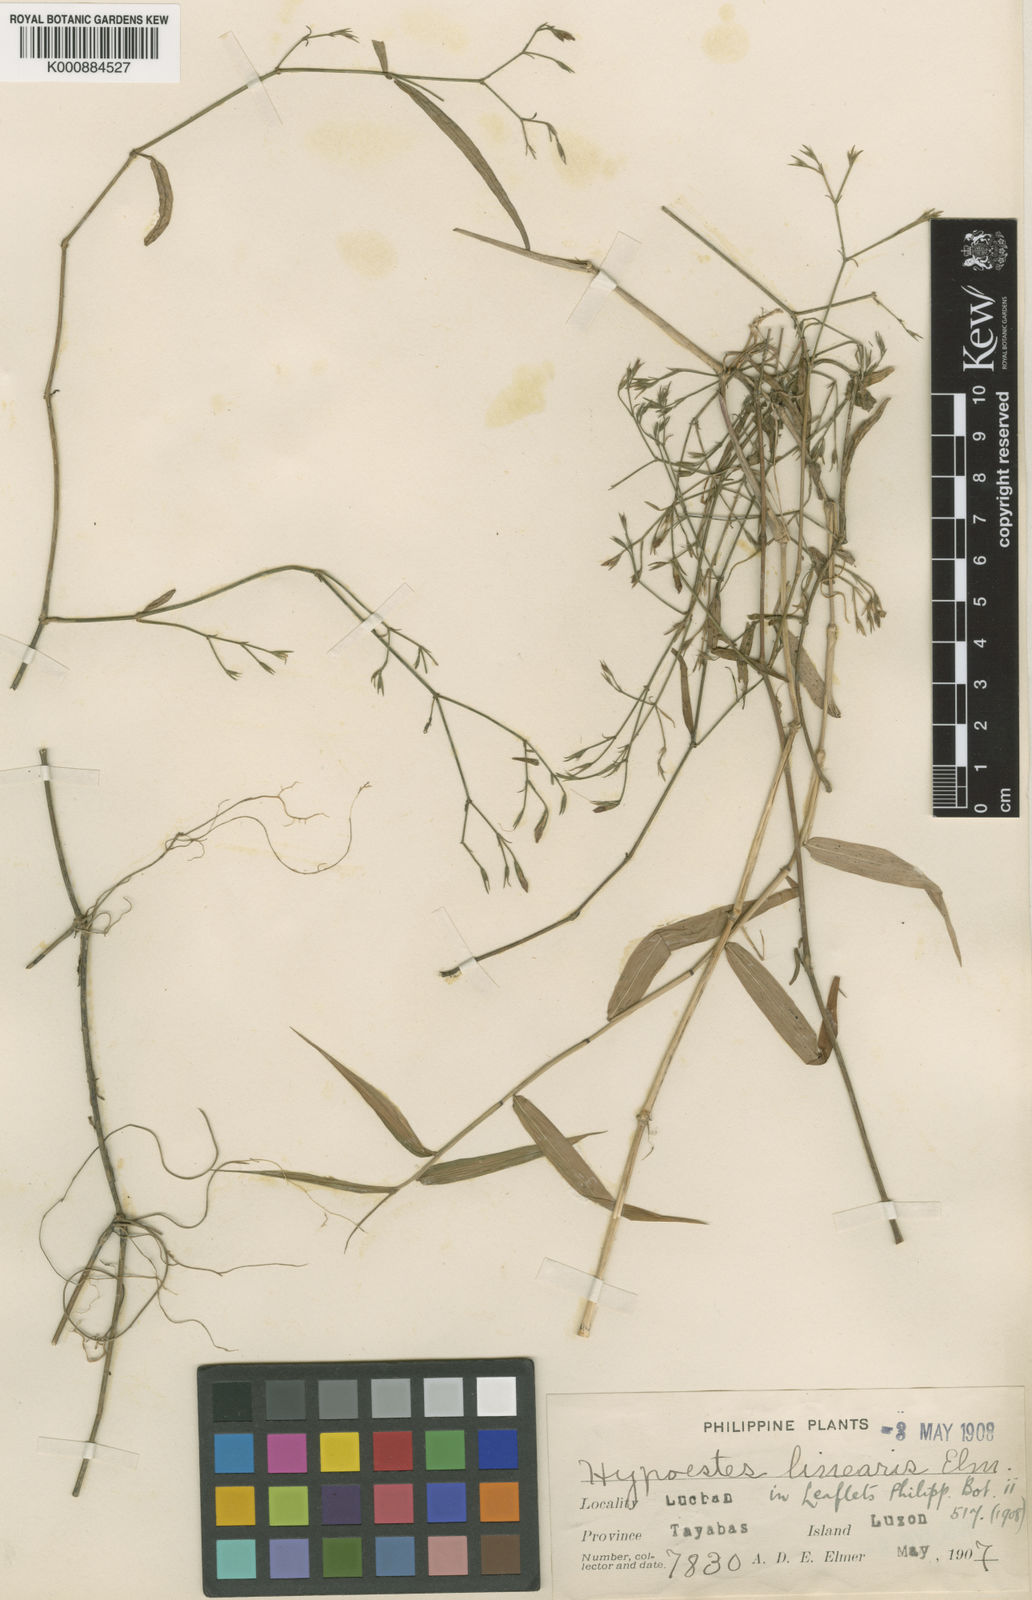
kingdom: Plantae
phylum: Tracheophyta
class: Magnoliopsida
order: Lamiales
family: Acanthaceae
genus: Hypoestes
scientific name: Hypoestes cumingiana
